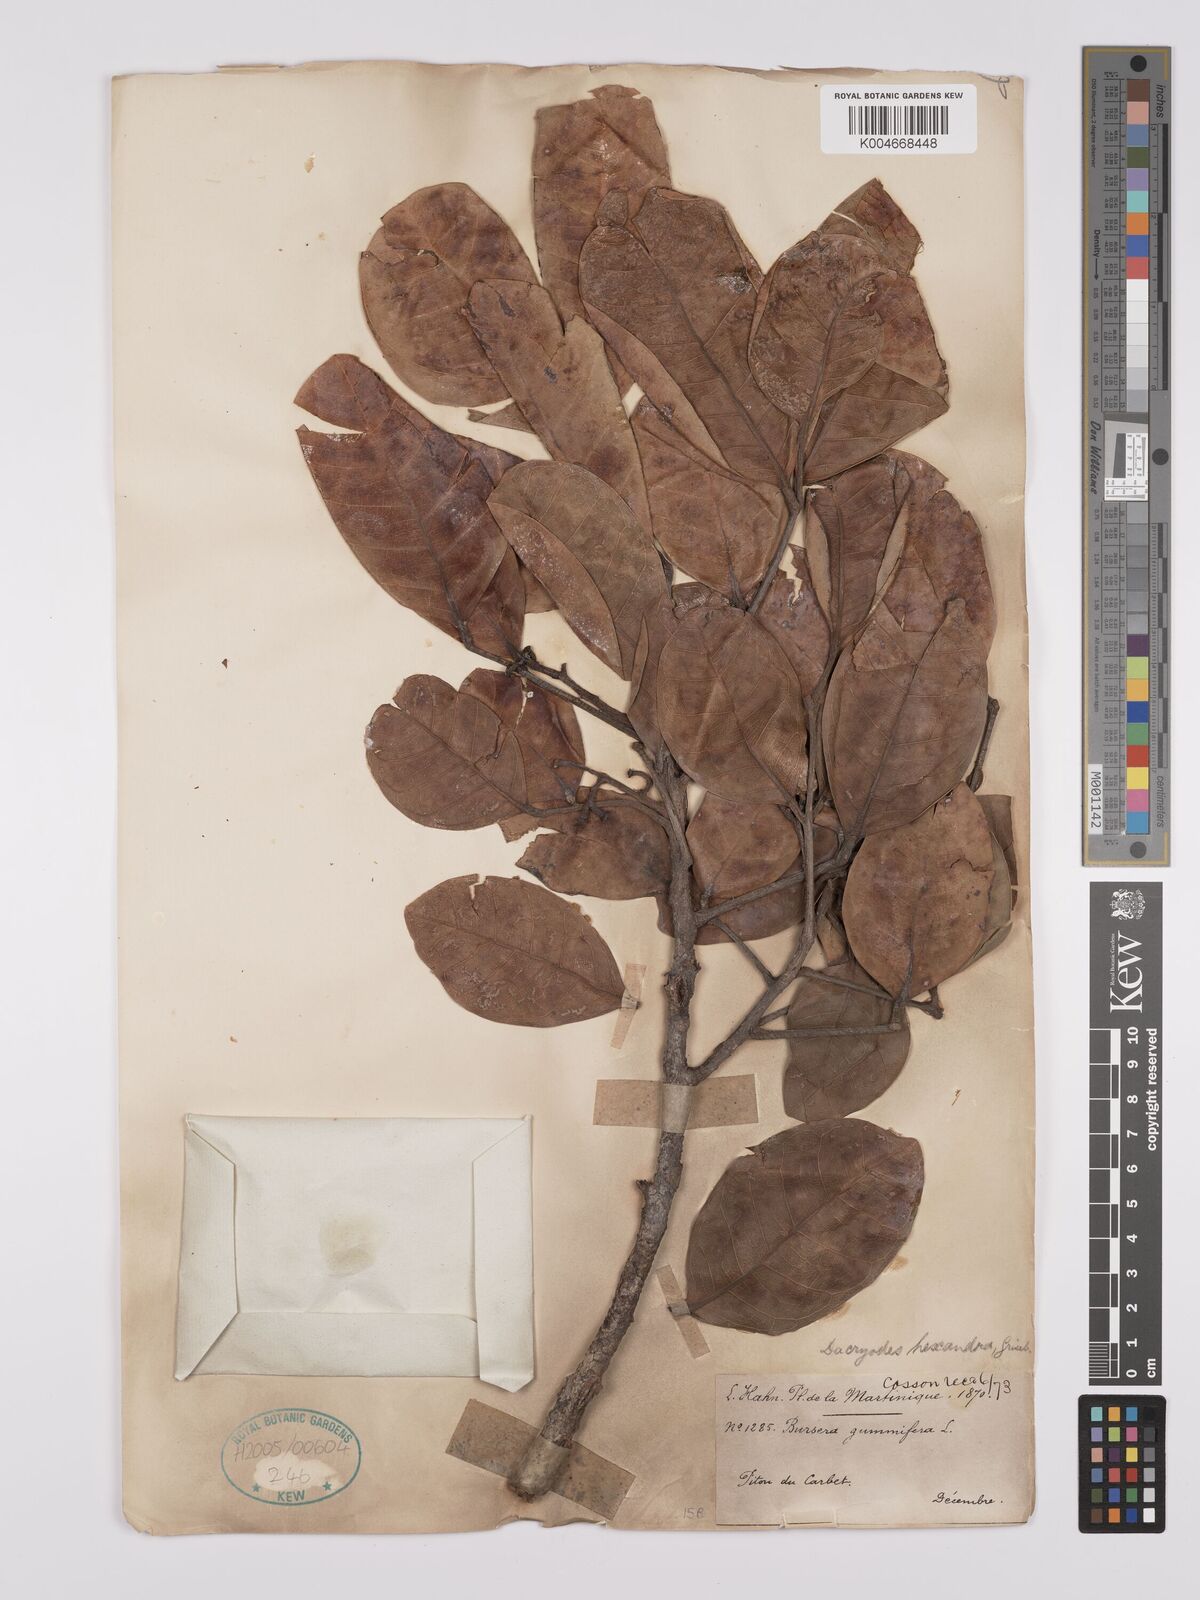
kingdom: Plantae
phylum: Tracheophyta
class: Magnoliopsida
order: Sapindales
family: Burseraceae
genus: Dacryodes
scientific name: Dacryodes excelsa
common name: Candlewood
